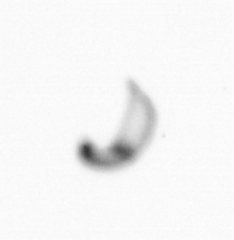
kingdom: Chromista
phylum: Ochrophyta
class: Bacillariophyceae
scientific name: Bacillariophyceae
